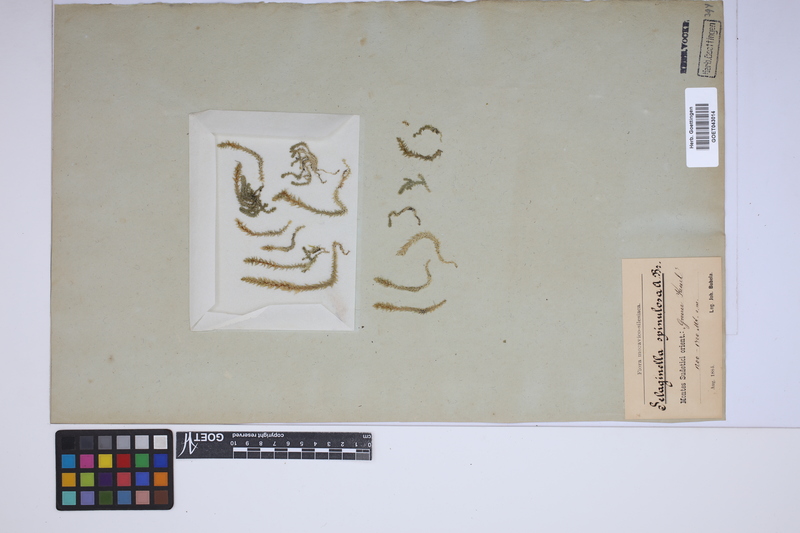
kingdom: Plantae
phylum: Tracheophyta
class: Lycopodiopsida
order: Selaginellales
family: Selaginellaceae
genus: Selaginella
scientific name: Selaginella selaginoides
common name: Prickly mountain-moss
